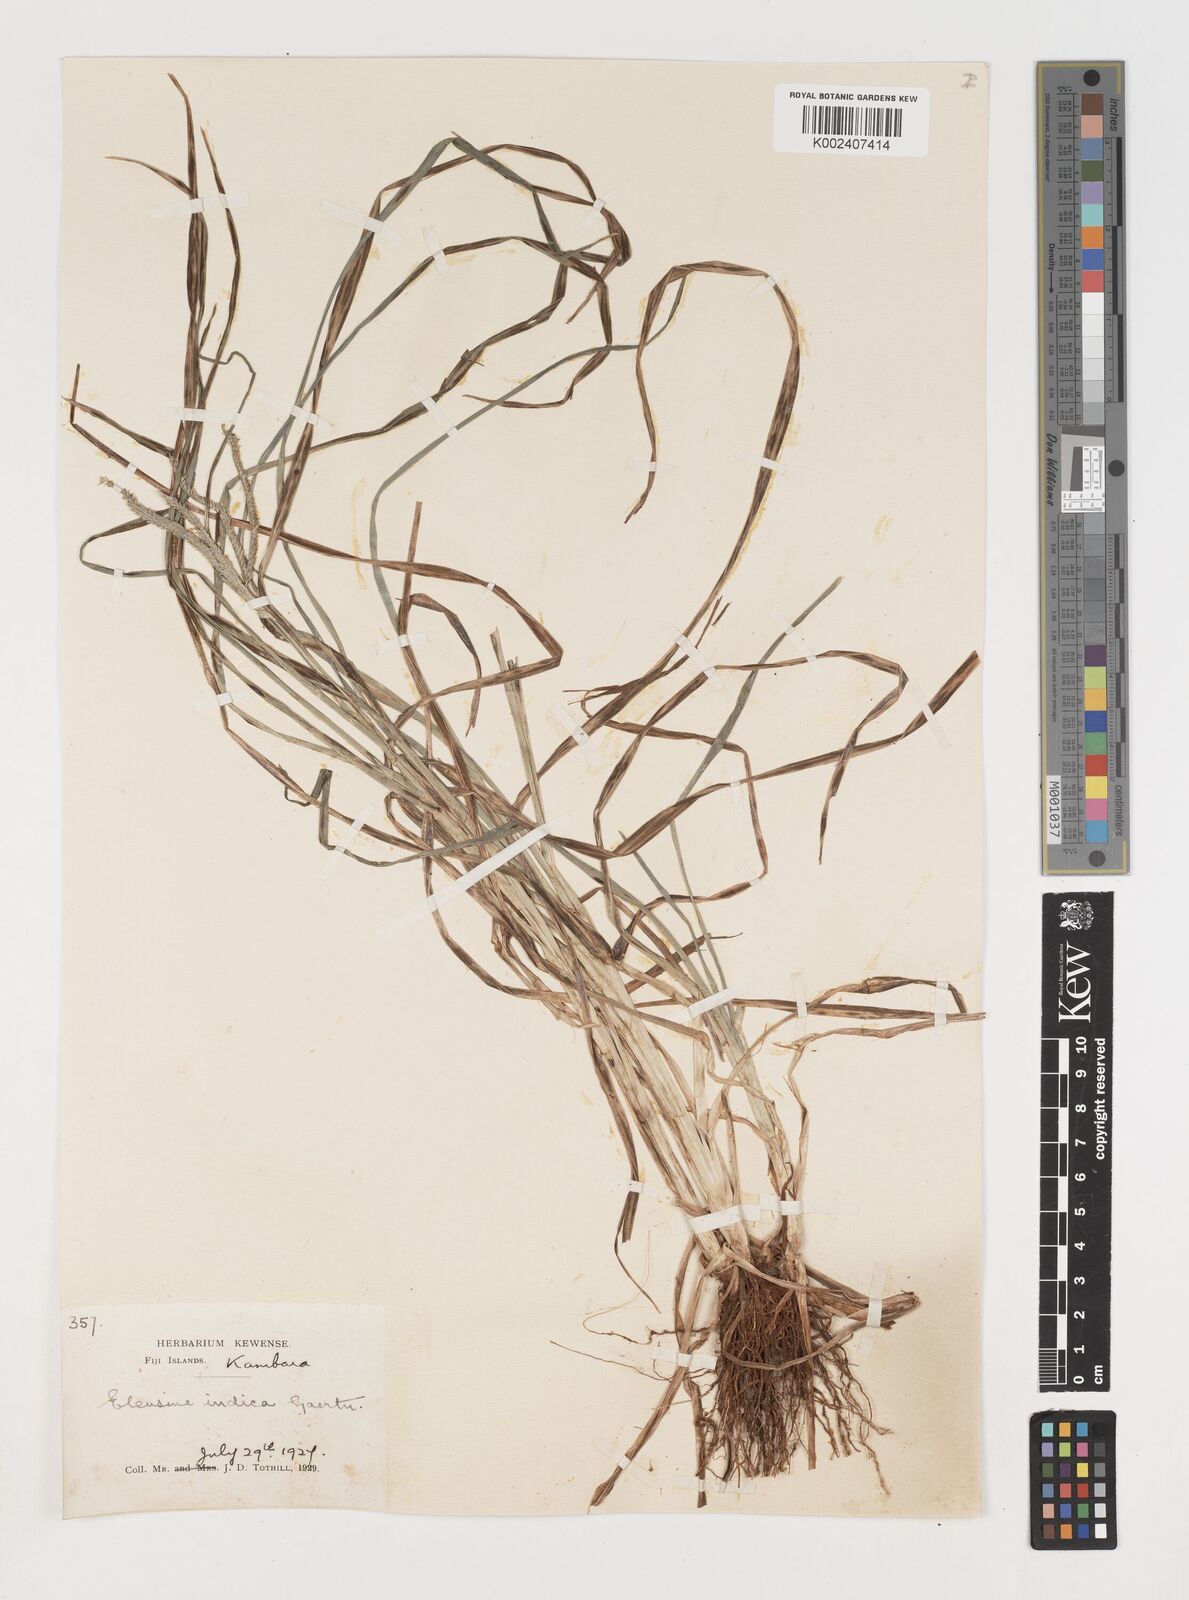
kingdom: Plantae
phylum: Tracheophyta
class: Liliopsida
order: Poales
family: Poaceae
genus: Eleusine
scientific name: Eleusine indica
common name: Yard-grass
